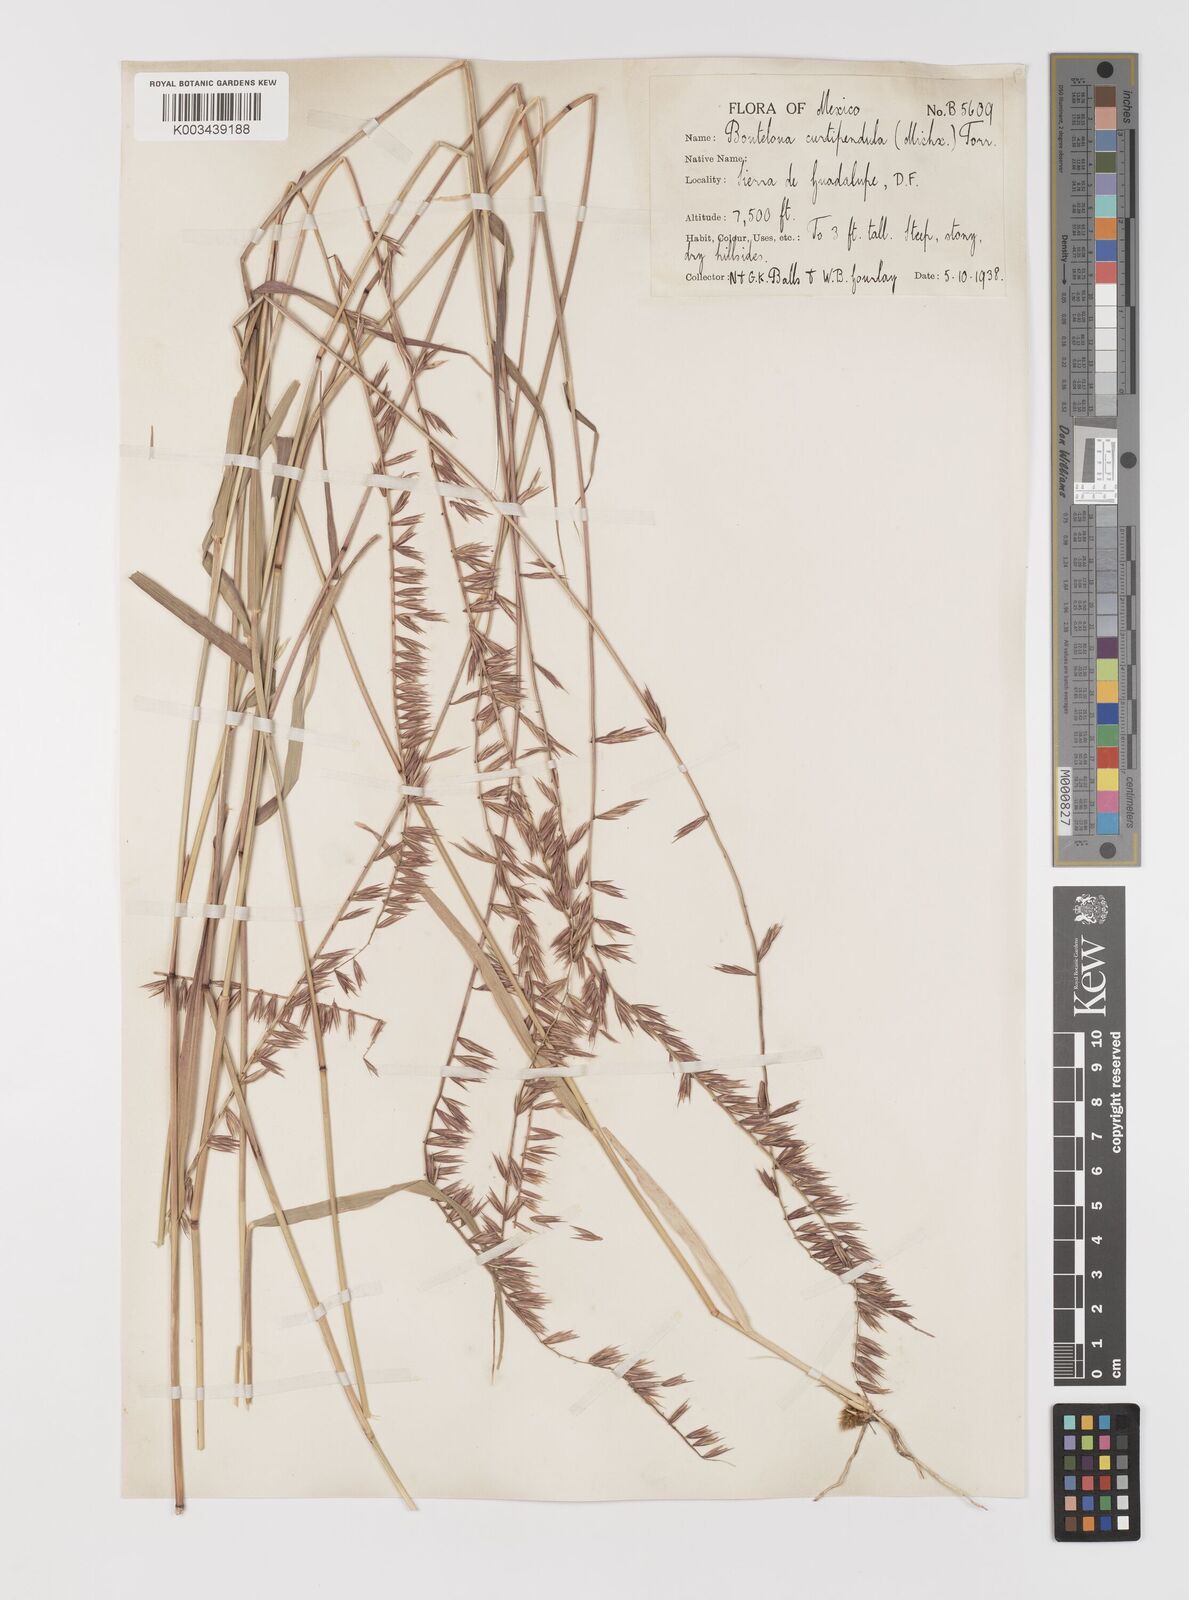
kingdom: Plantae
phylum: Tracheophyta
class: Liliopsida
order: Poales
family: Poaceae
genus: Bouteloua
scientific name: Bouteloua curtipendula
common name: Side-oats grama
